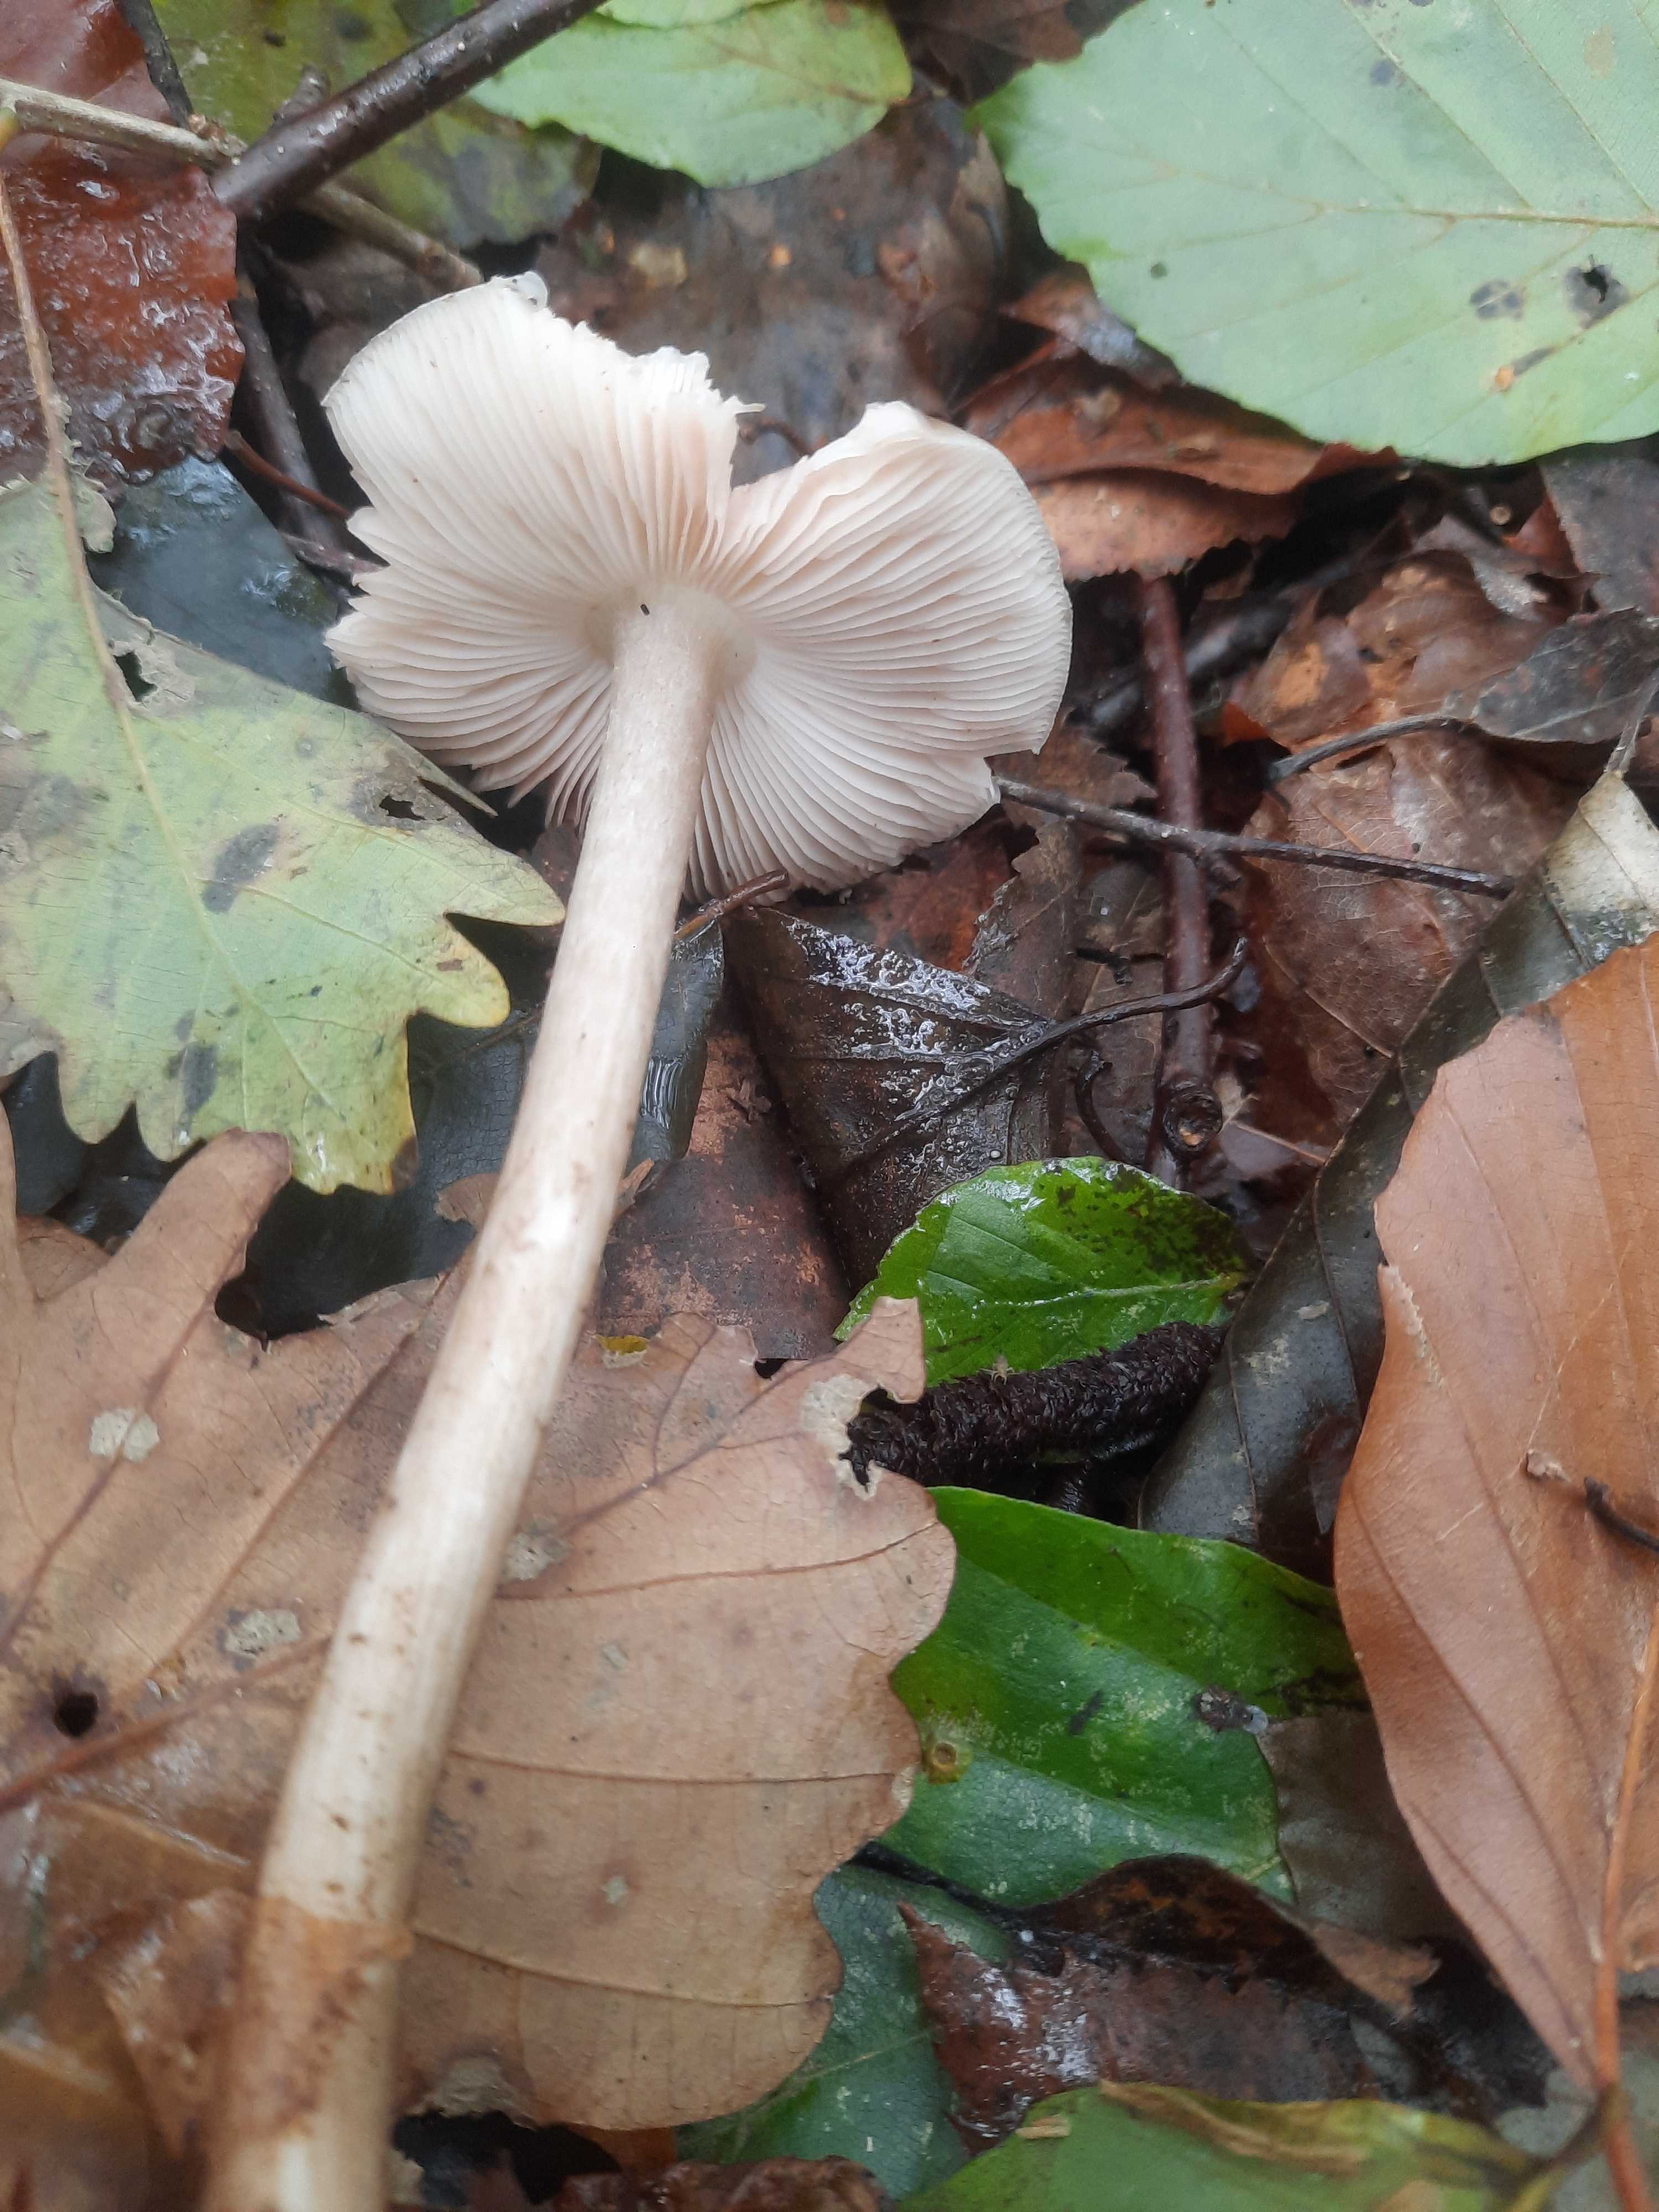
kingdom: Fungi
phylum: Basidiomycota
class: Agaricomycetes
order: Agaricales
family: Tricholomataceae
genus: Megacollybia
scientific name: Megacollybia platyphylla
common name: bredbladet væbnerhat
